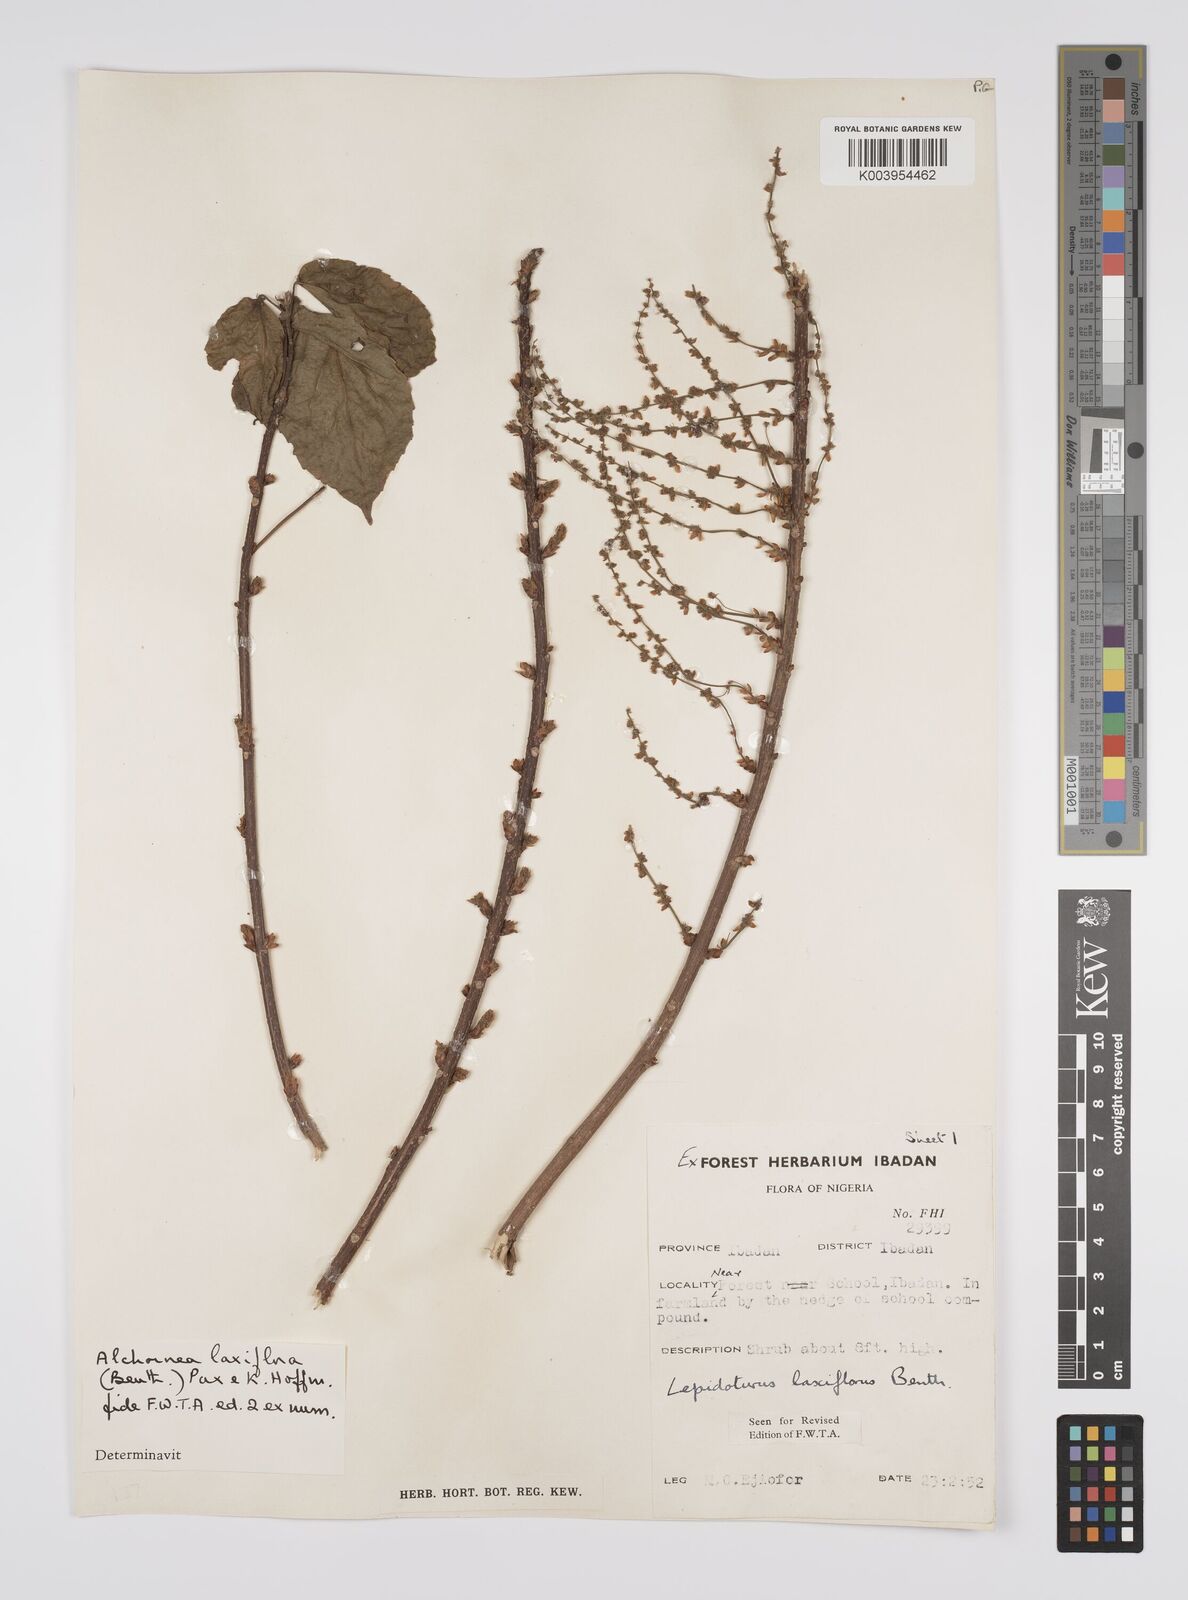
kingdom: Plantae
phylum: Tracheophyta
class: Magnoliopsida
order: Malpighiales
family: Euphorbiaceae
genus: Alchornea
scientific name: Alchornea laxiflora
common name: Lowveld bead-string
